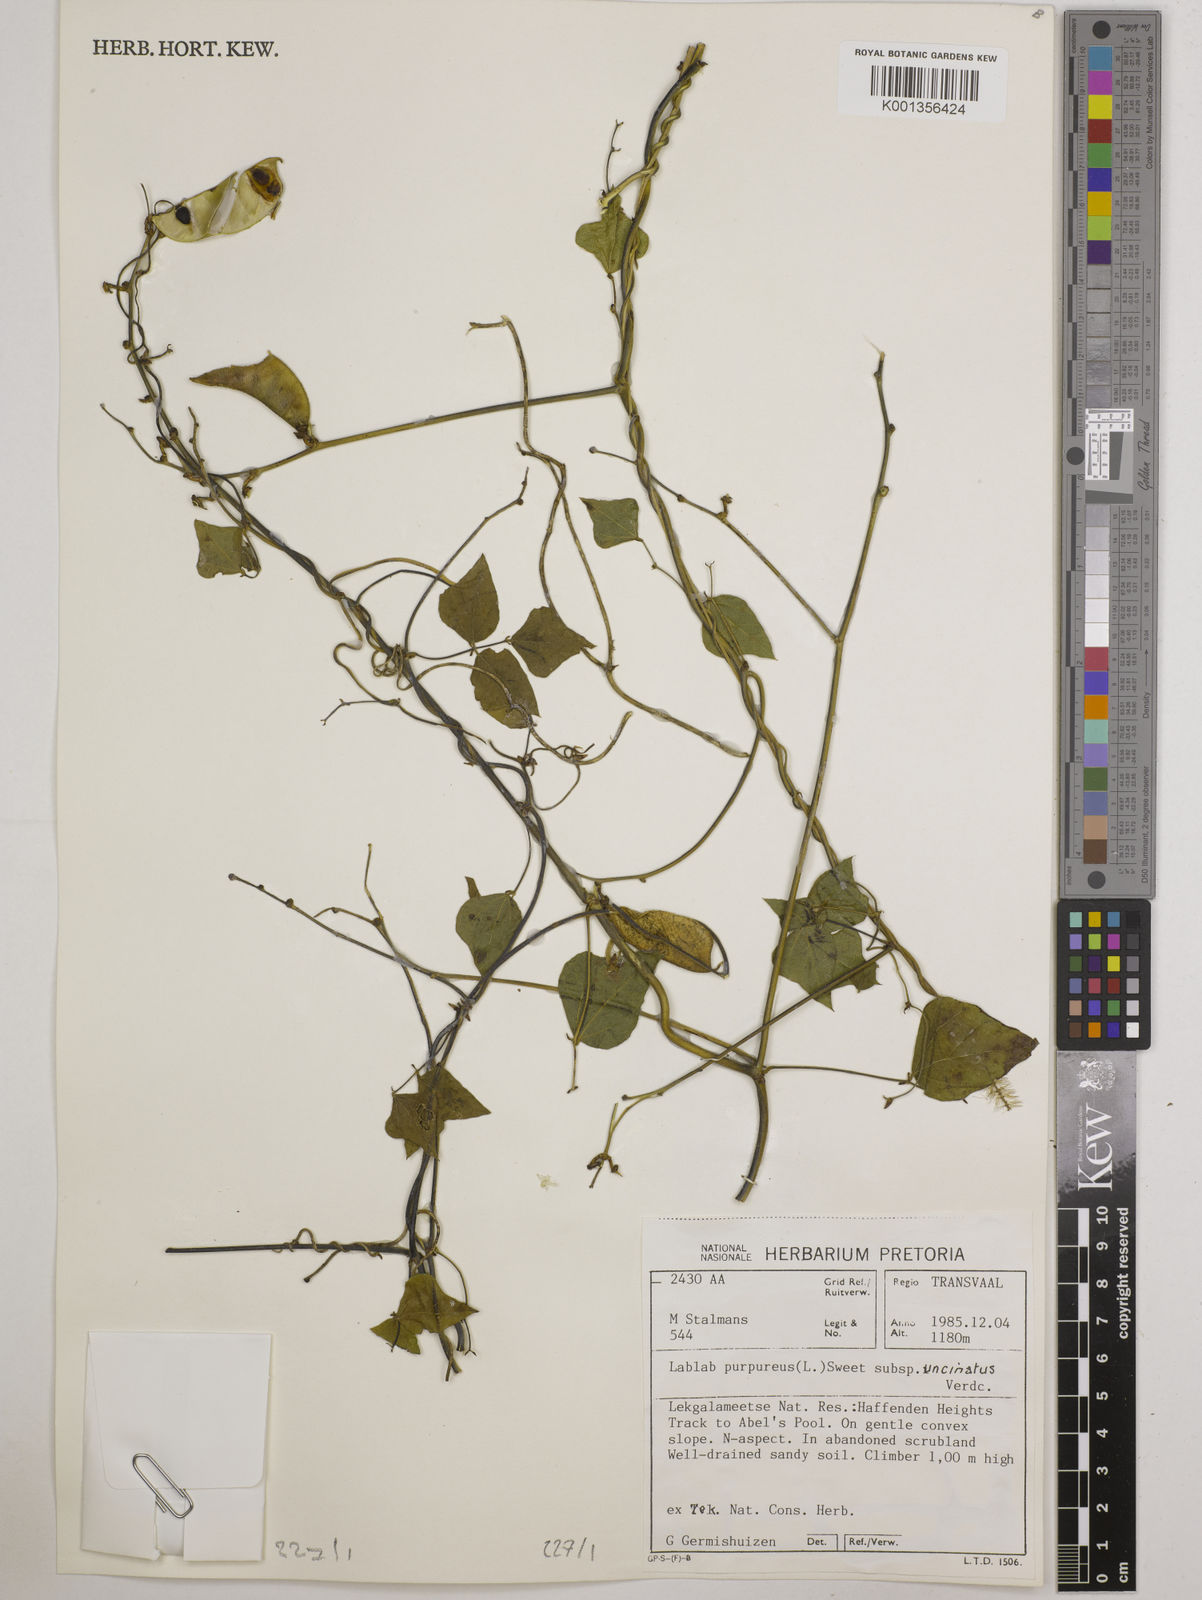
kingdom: Plantae
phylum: Tracheophyta
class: Magnoliopsida
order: Fabales
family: Fabaceae
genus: Lablab
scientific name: Lablab purpureus
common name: Lablab-bean
